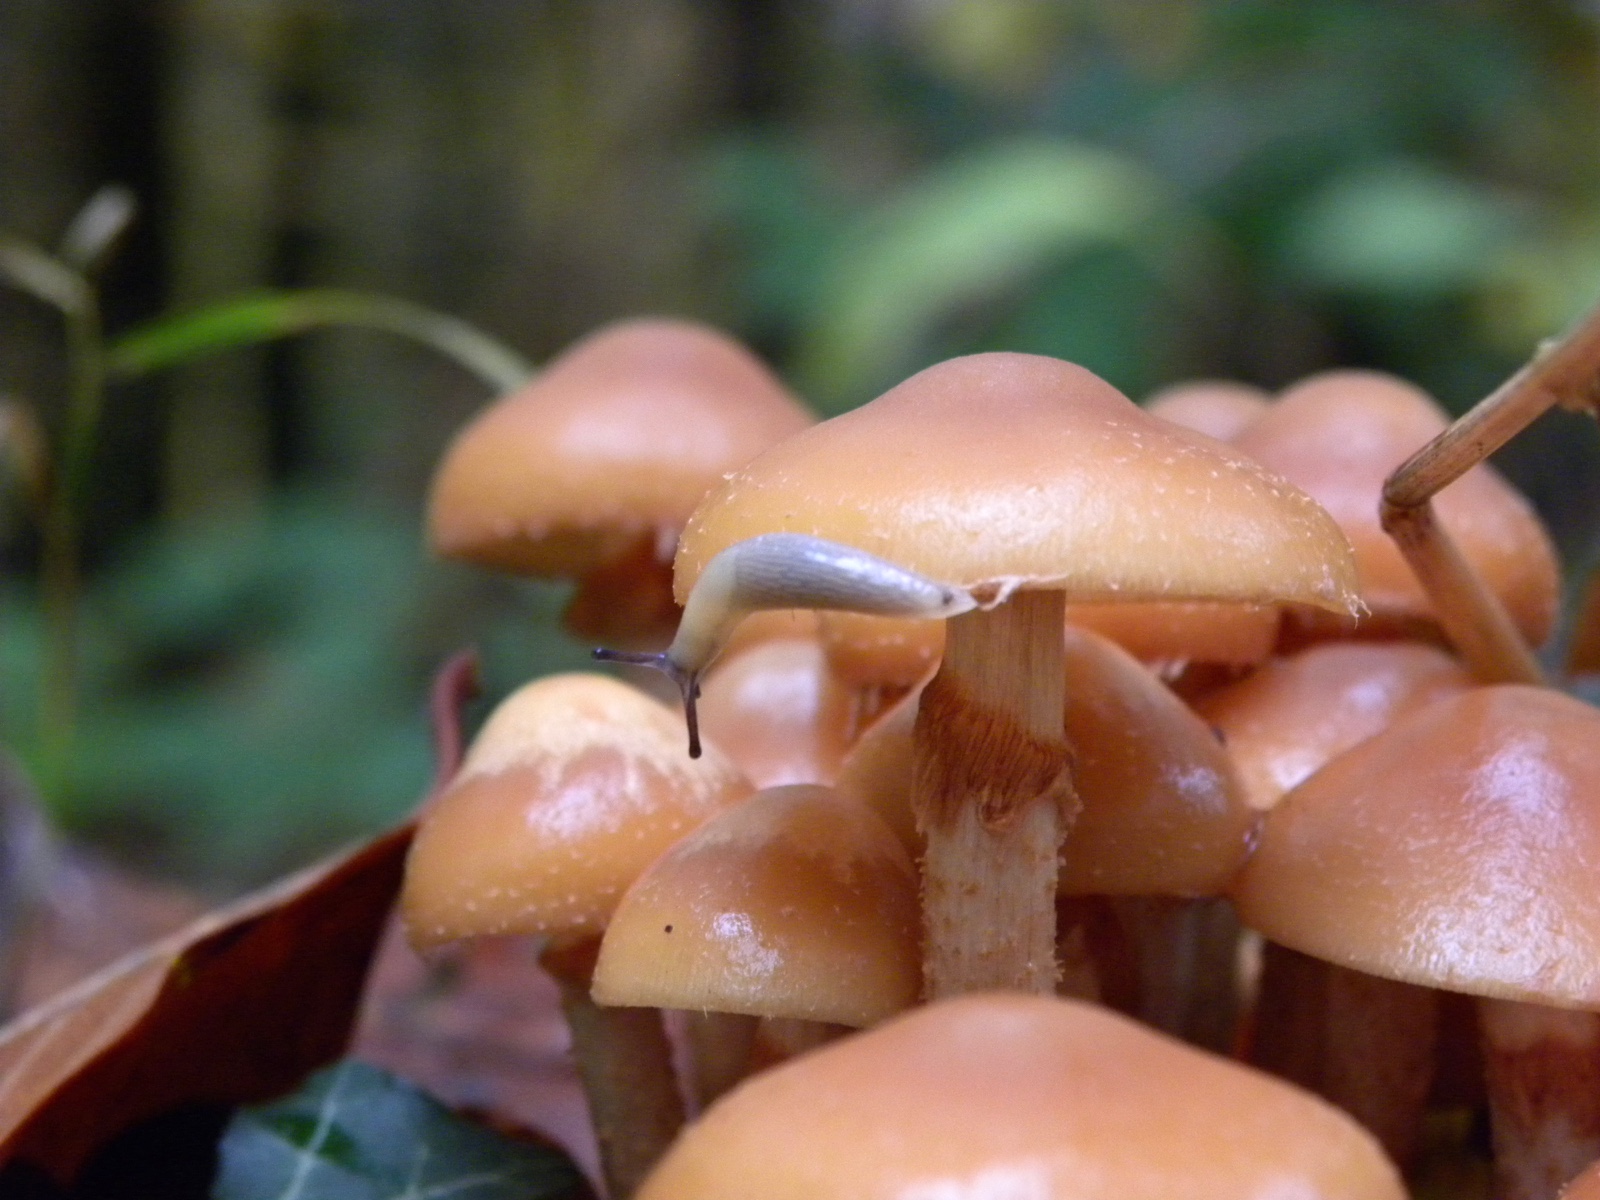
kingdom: Fungi
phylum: Basidiomycota
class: Agaricomycetes
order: Agaricales
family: Strophariaceae
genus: Kuehneromyces
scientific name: Kuehneromyces mutabilis
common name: foranderlig skælhat
